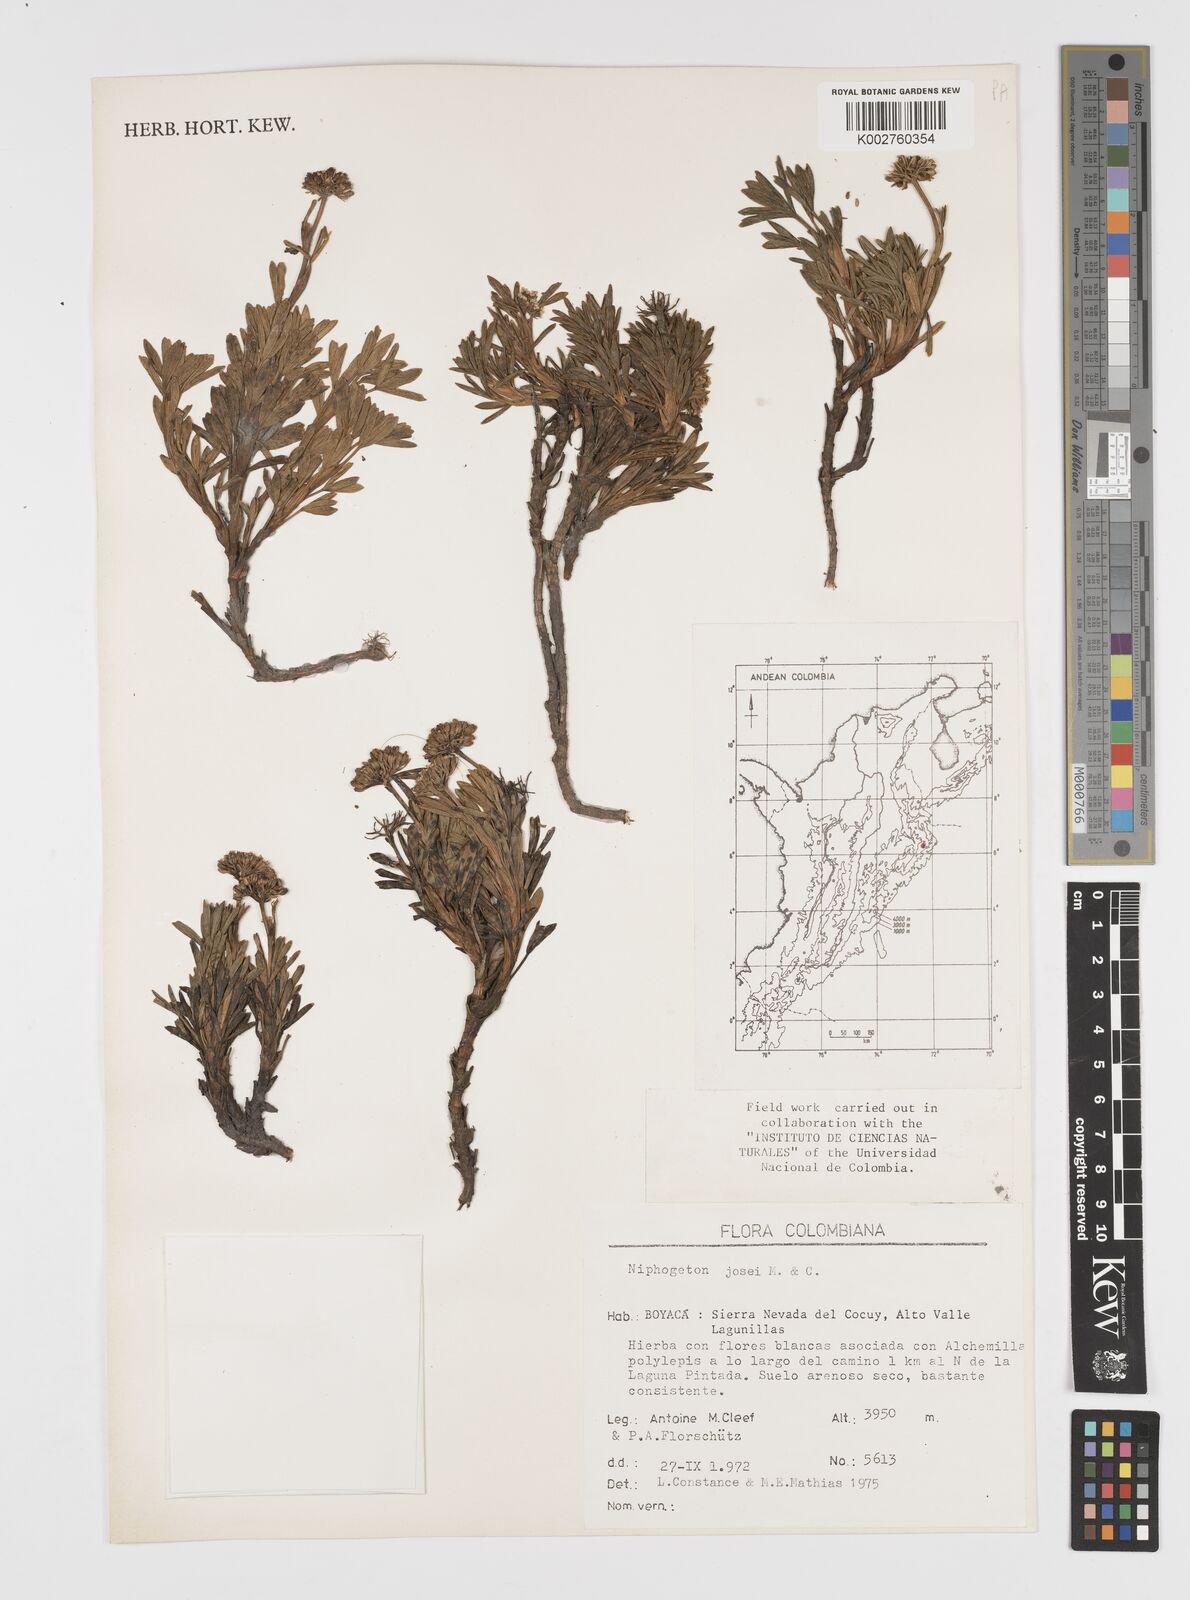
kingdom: Plantae
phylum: Tracheophyta
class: Magnoliopsida
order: Apiales
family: Apiaceae
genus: Niphogeton
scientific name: Niphogeton josei
